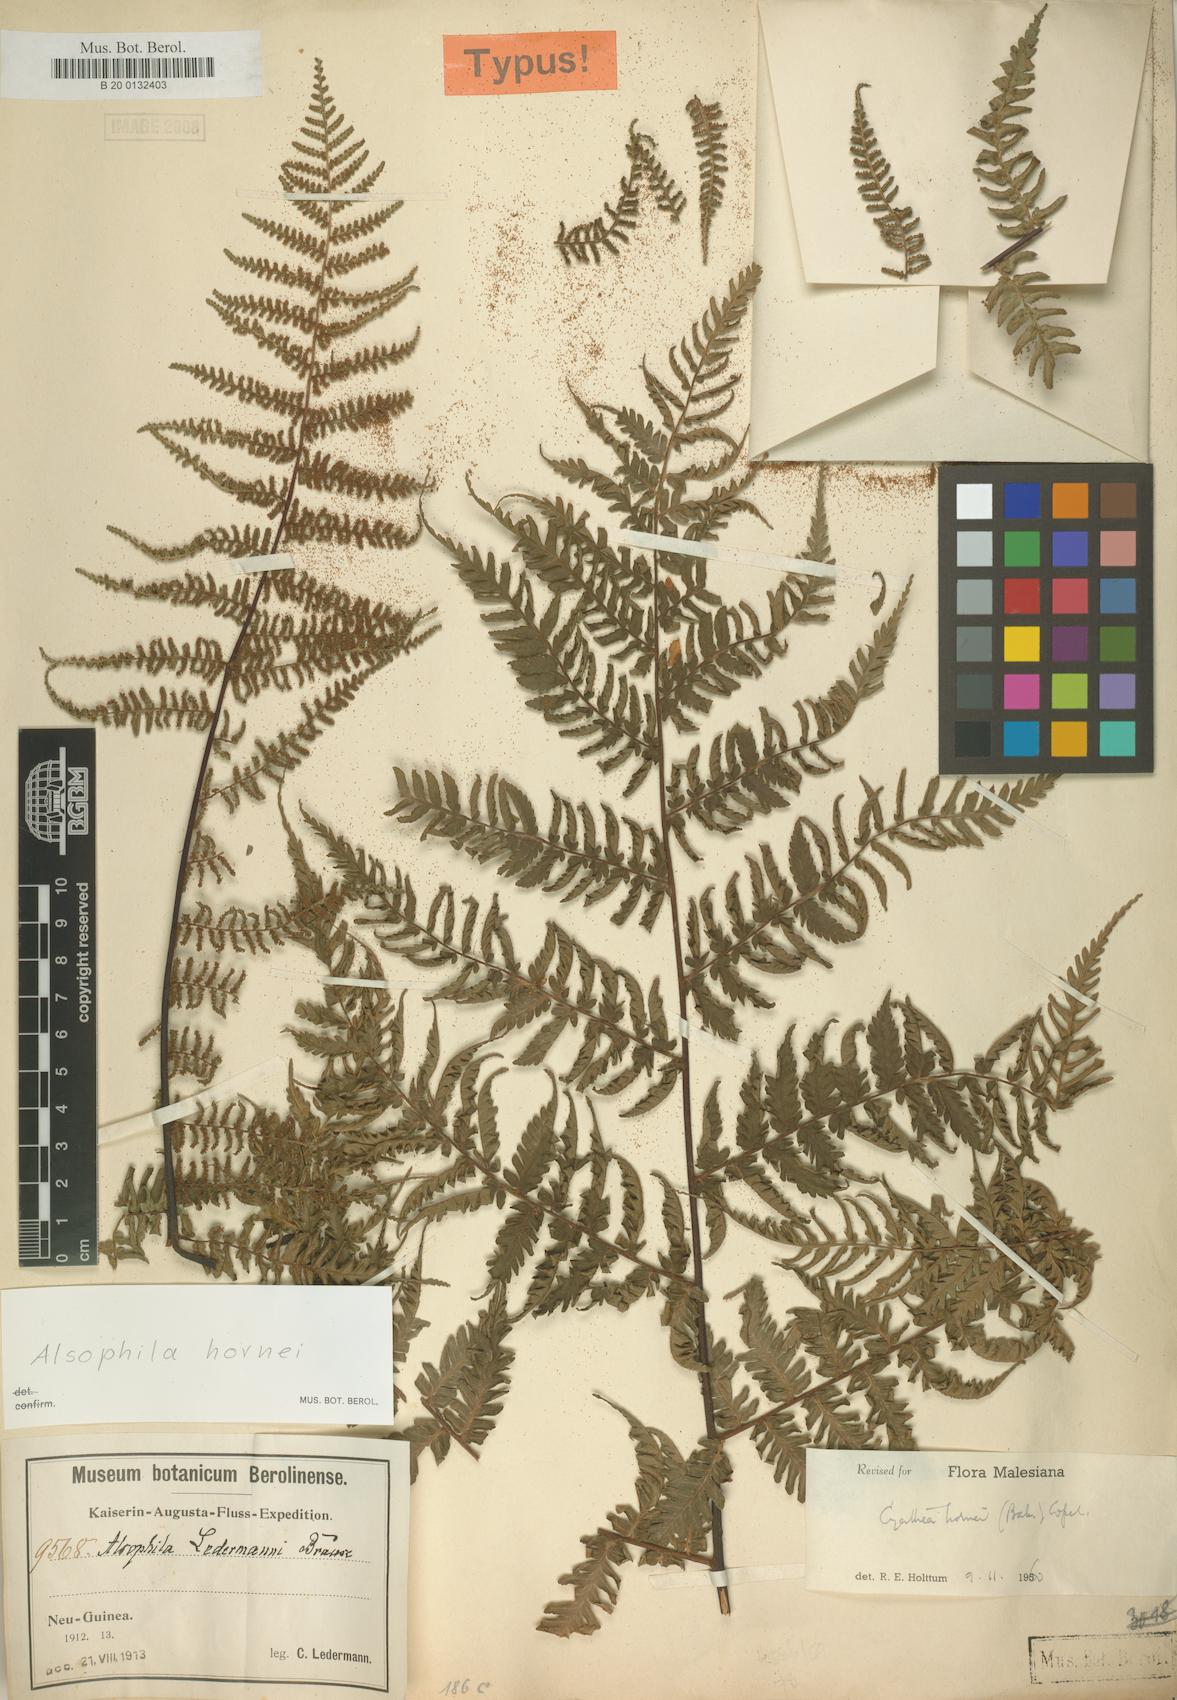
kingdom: Plantae
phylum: Tracheophyta
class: Polypodiopsida
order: Cyatheales
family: Cyatheaceae
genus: Gymnosphaera
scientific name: Gymnosphaera hornei
